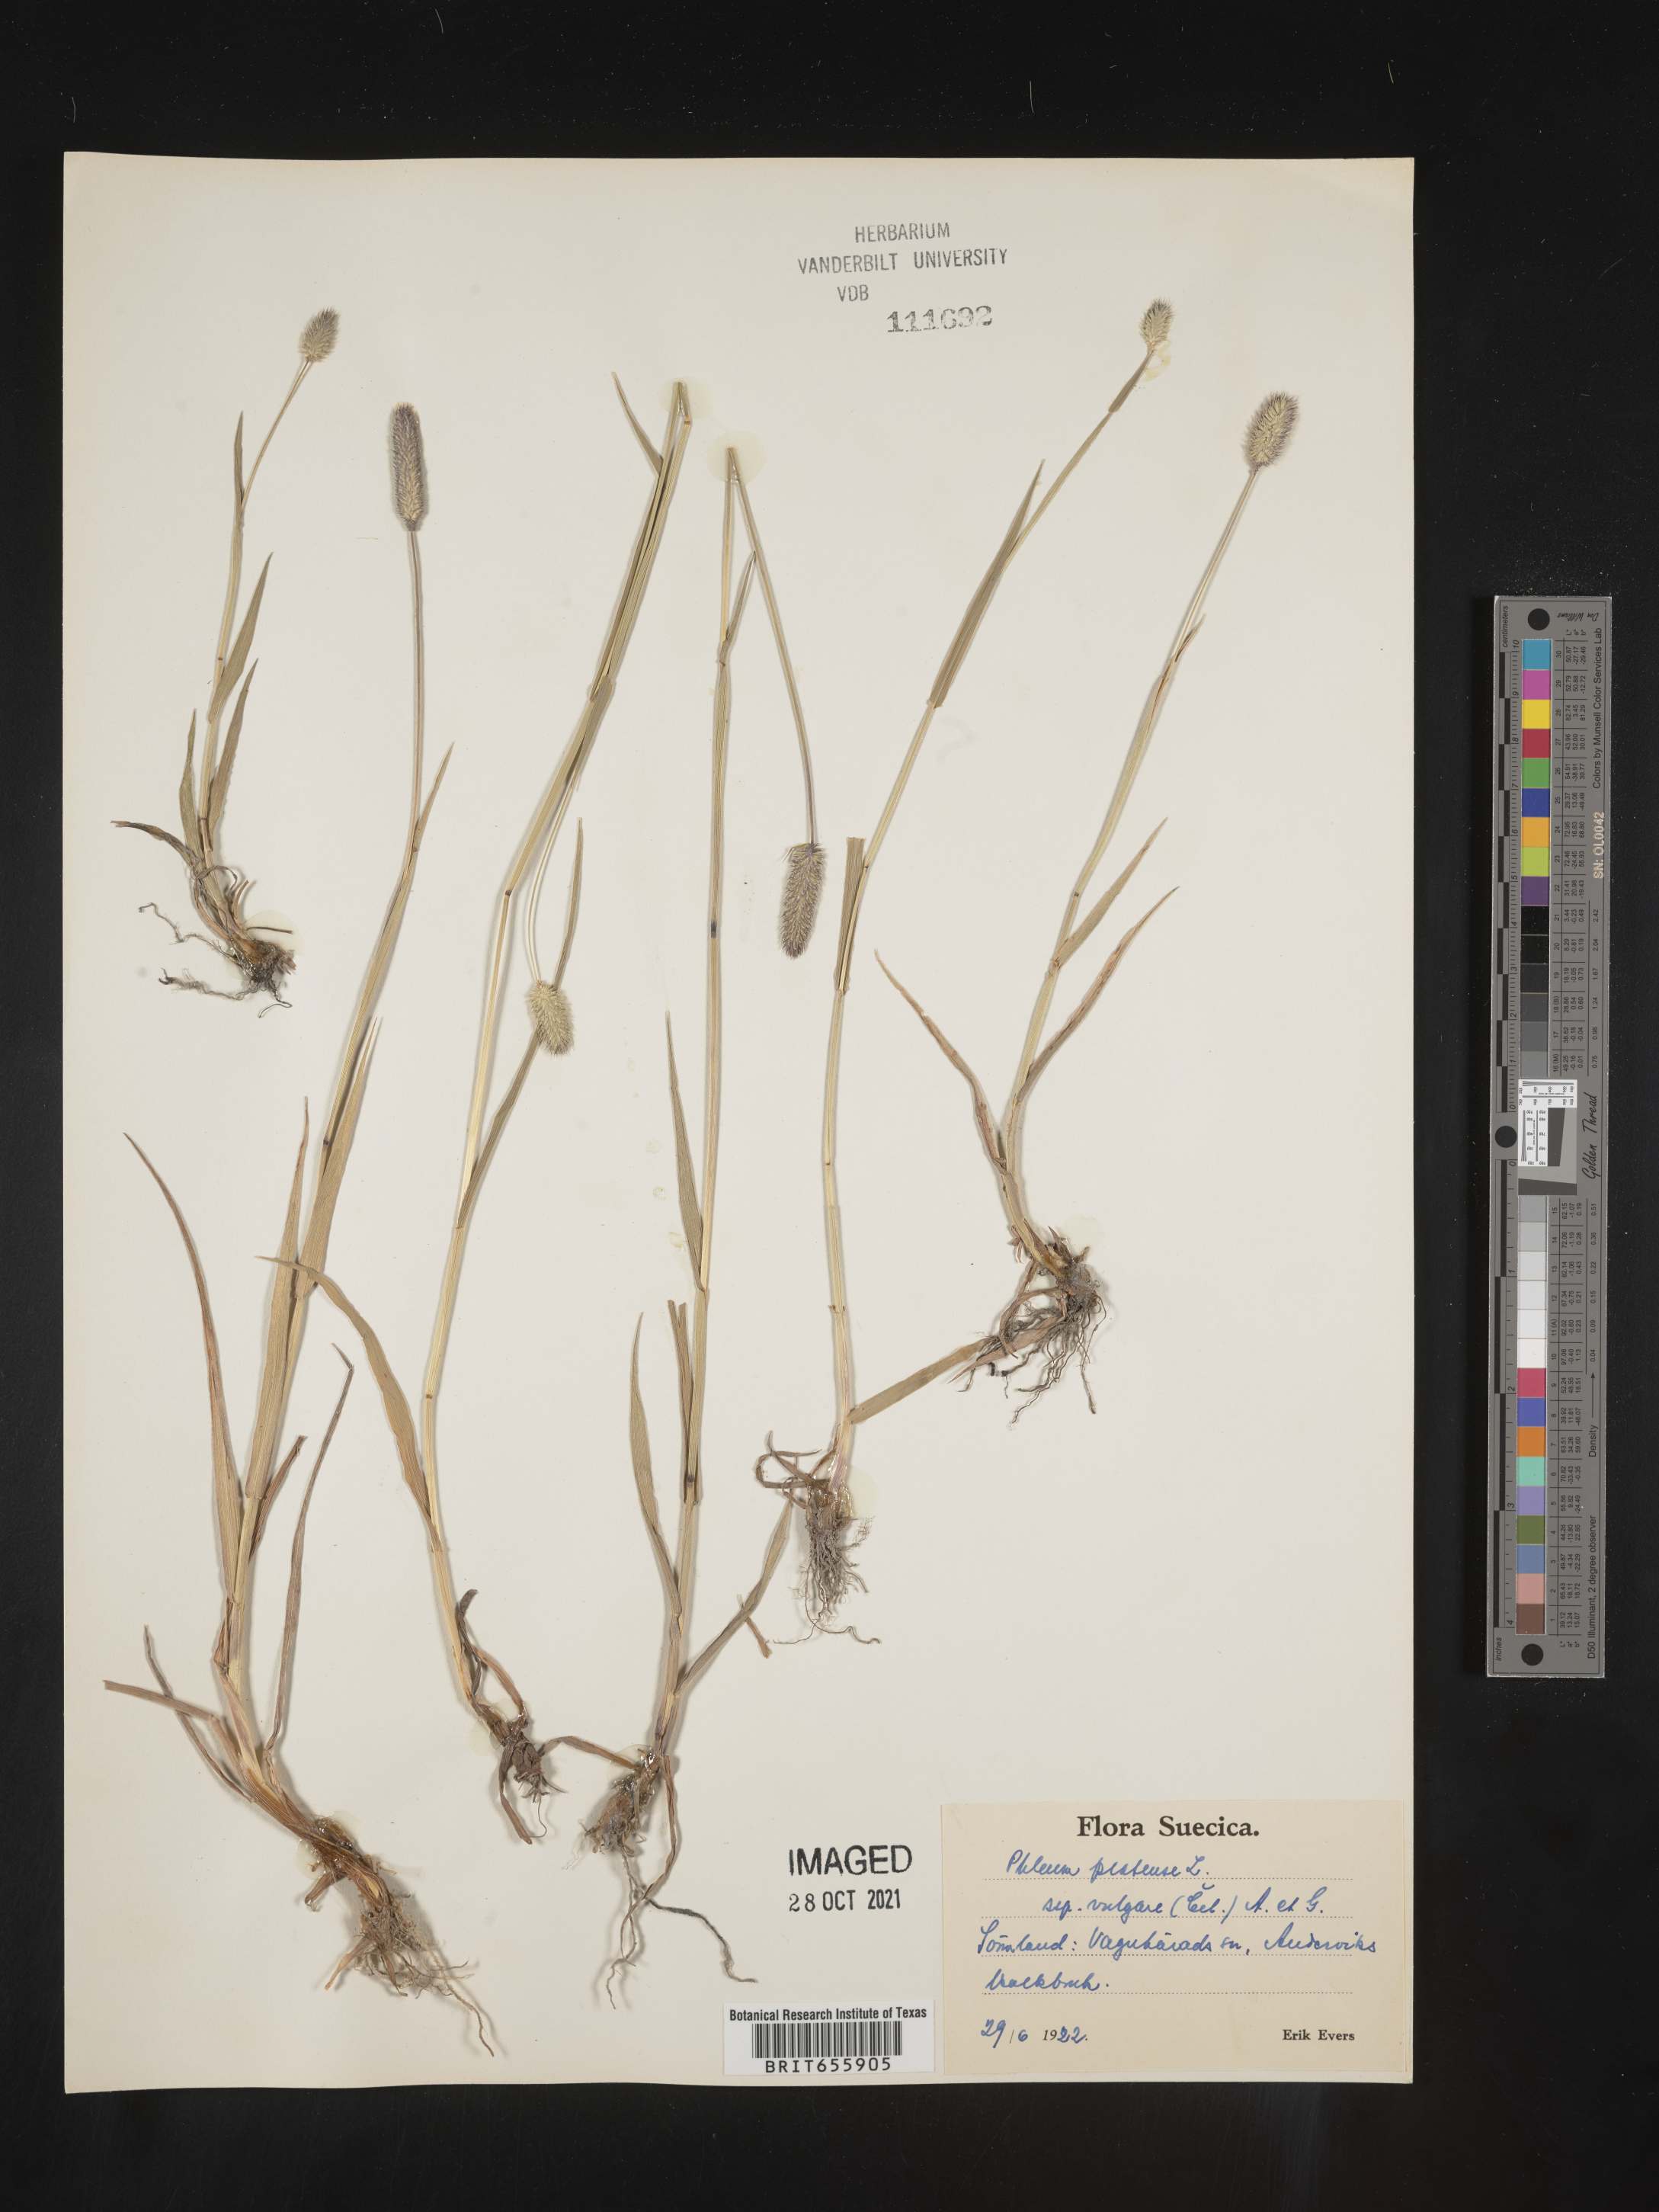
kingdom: Plantae
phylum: Tracheophyta
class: Liliopsida
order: Poales
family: Poaceae
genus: Phleum
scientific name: Phleum
